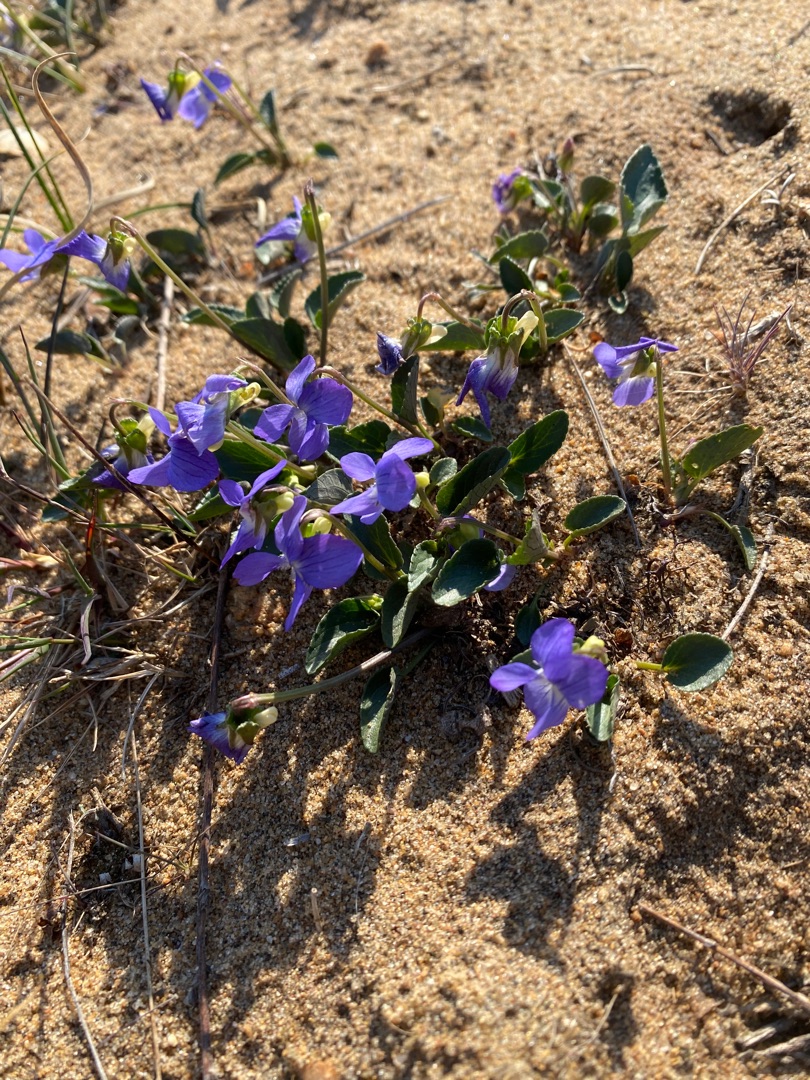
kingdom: Plantae
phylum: Tracheophyta
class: Magnoliopsida
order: Malpighiales
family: Violaceae
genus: Viola
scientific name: Viola canina
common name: Hunde-viol
